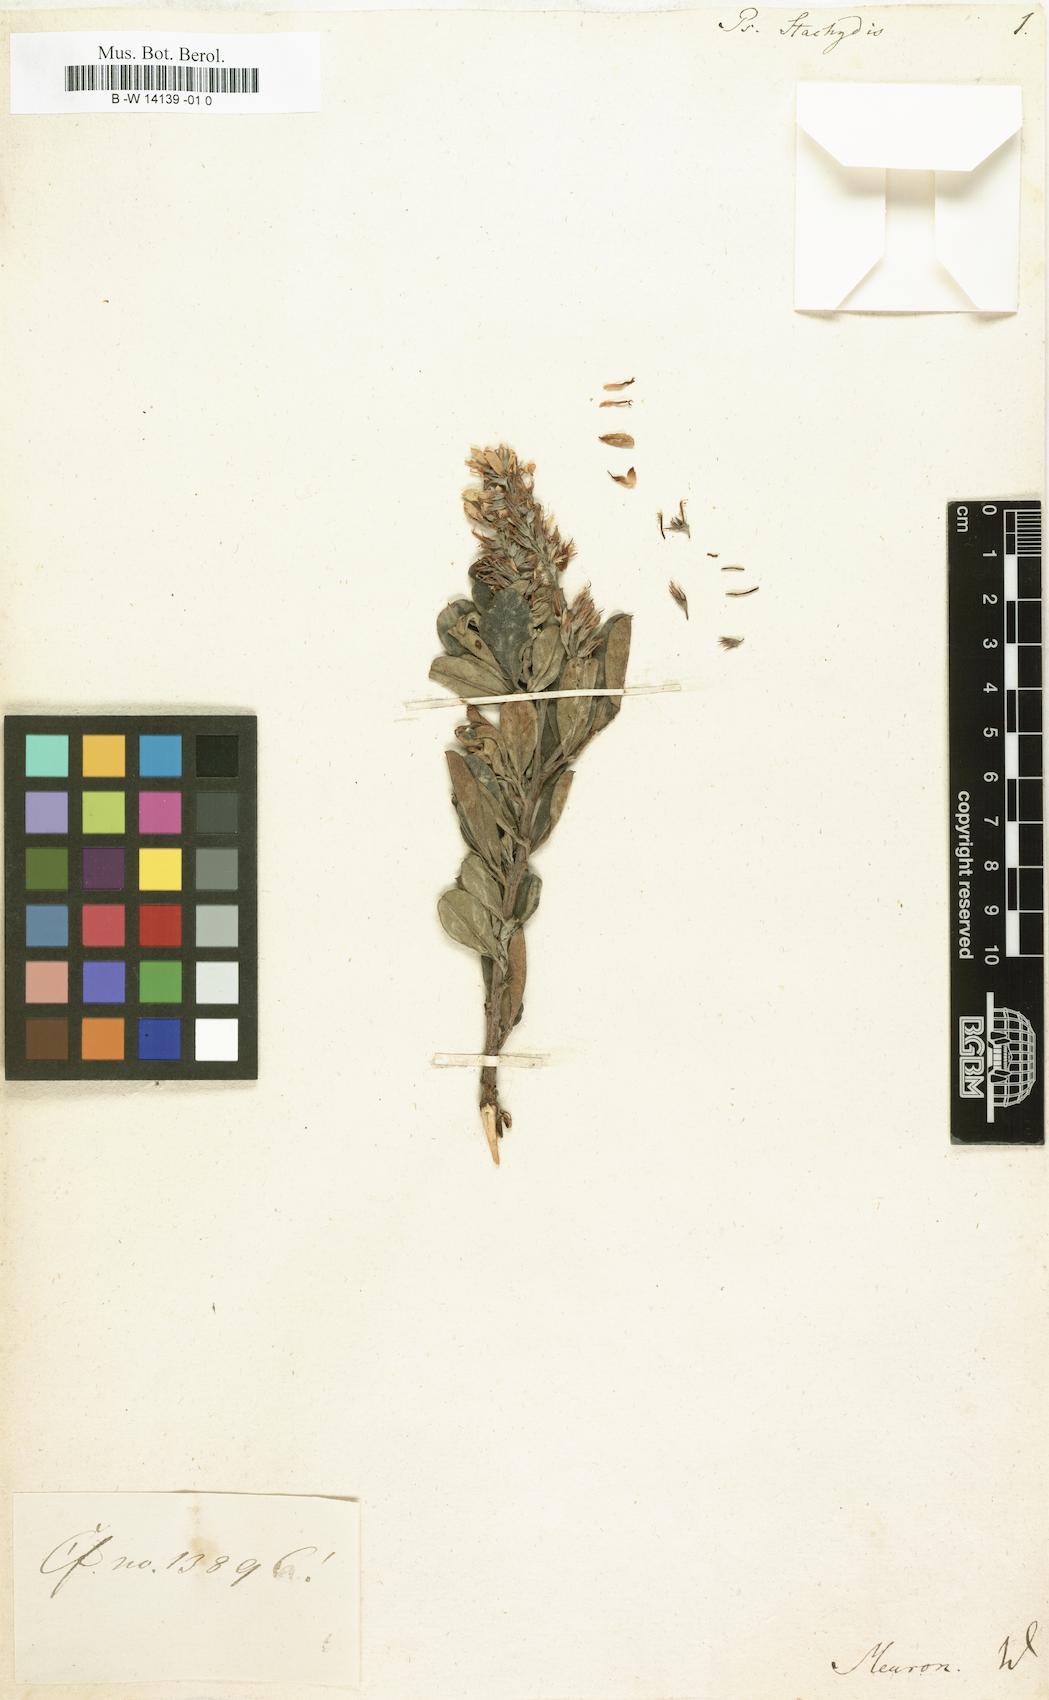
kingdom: Plantae
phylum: Tracheophyta
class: Magnoliopsida
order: Fabales
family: Fabaceae
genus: Indigofera
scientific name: Indigofera cytisoides
